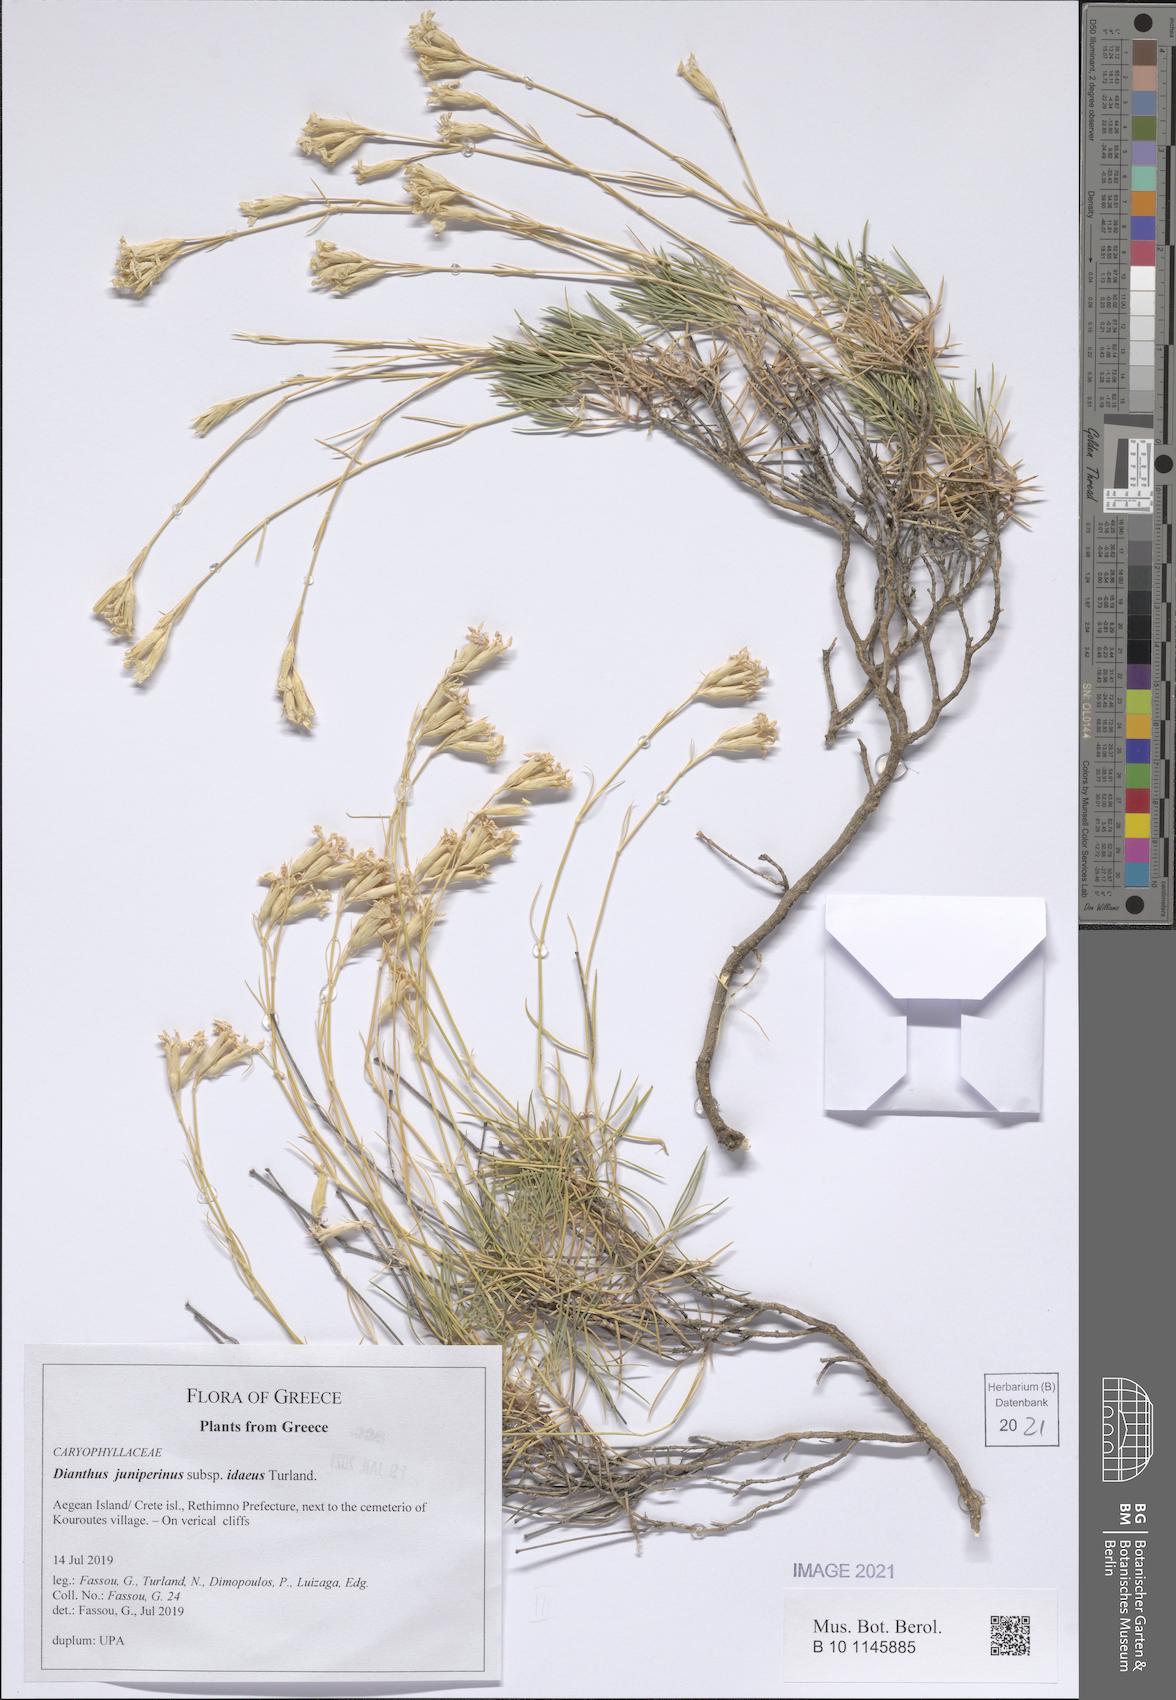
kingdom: Plantae
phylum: Tracheophyta
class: Magnoliopsida
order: Caryophyllales
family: Caryophyllaceae
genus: Dianthus
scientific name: Dianthus juniperinus
